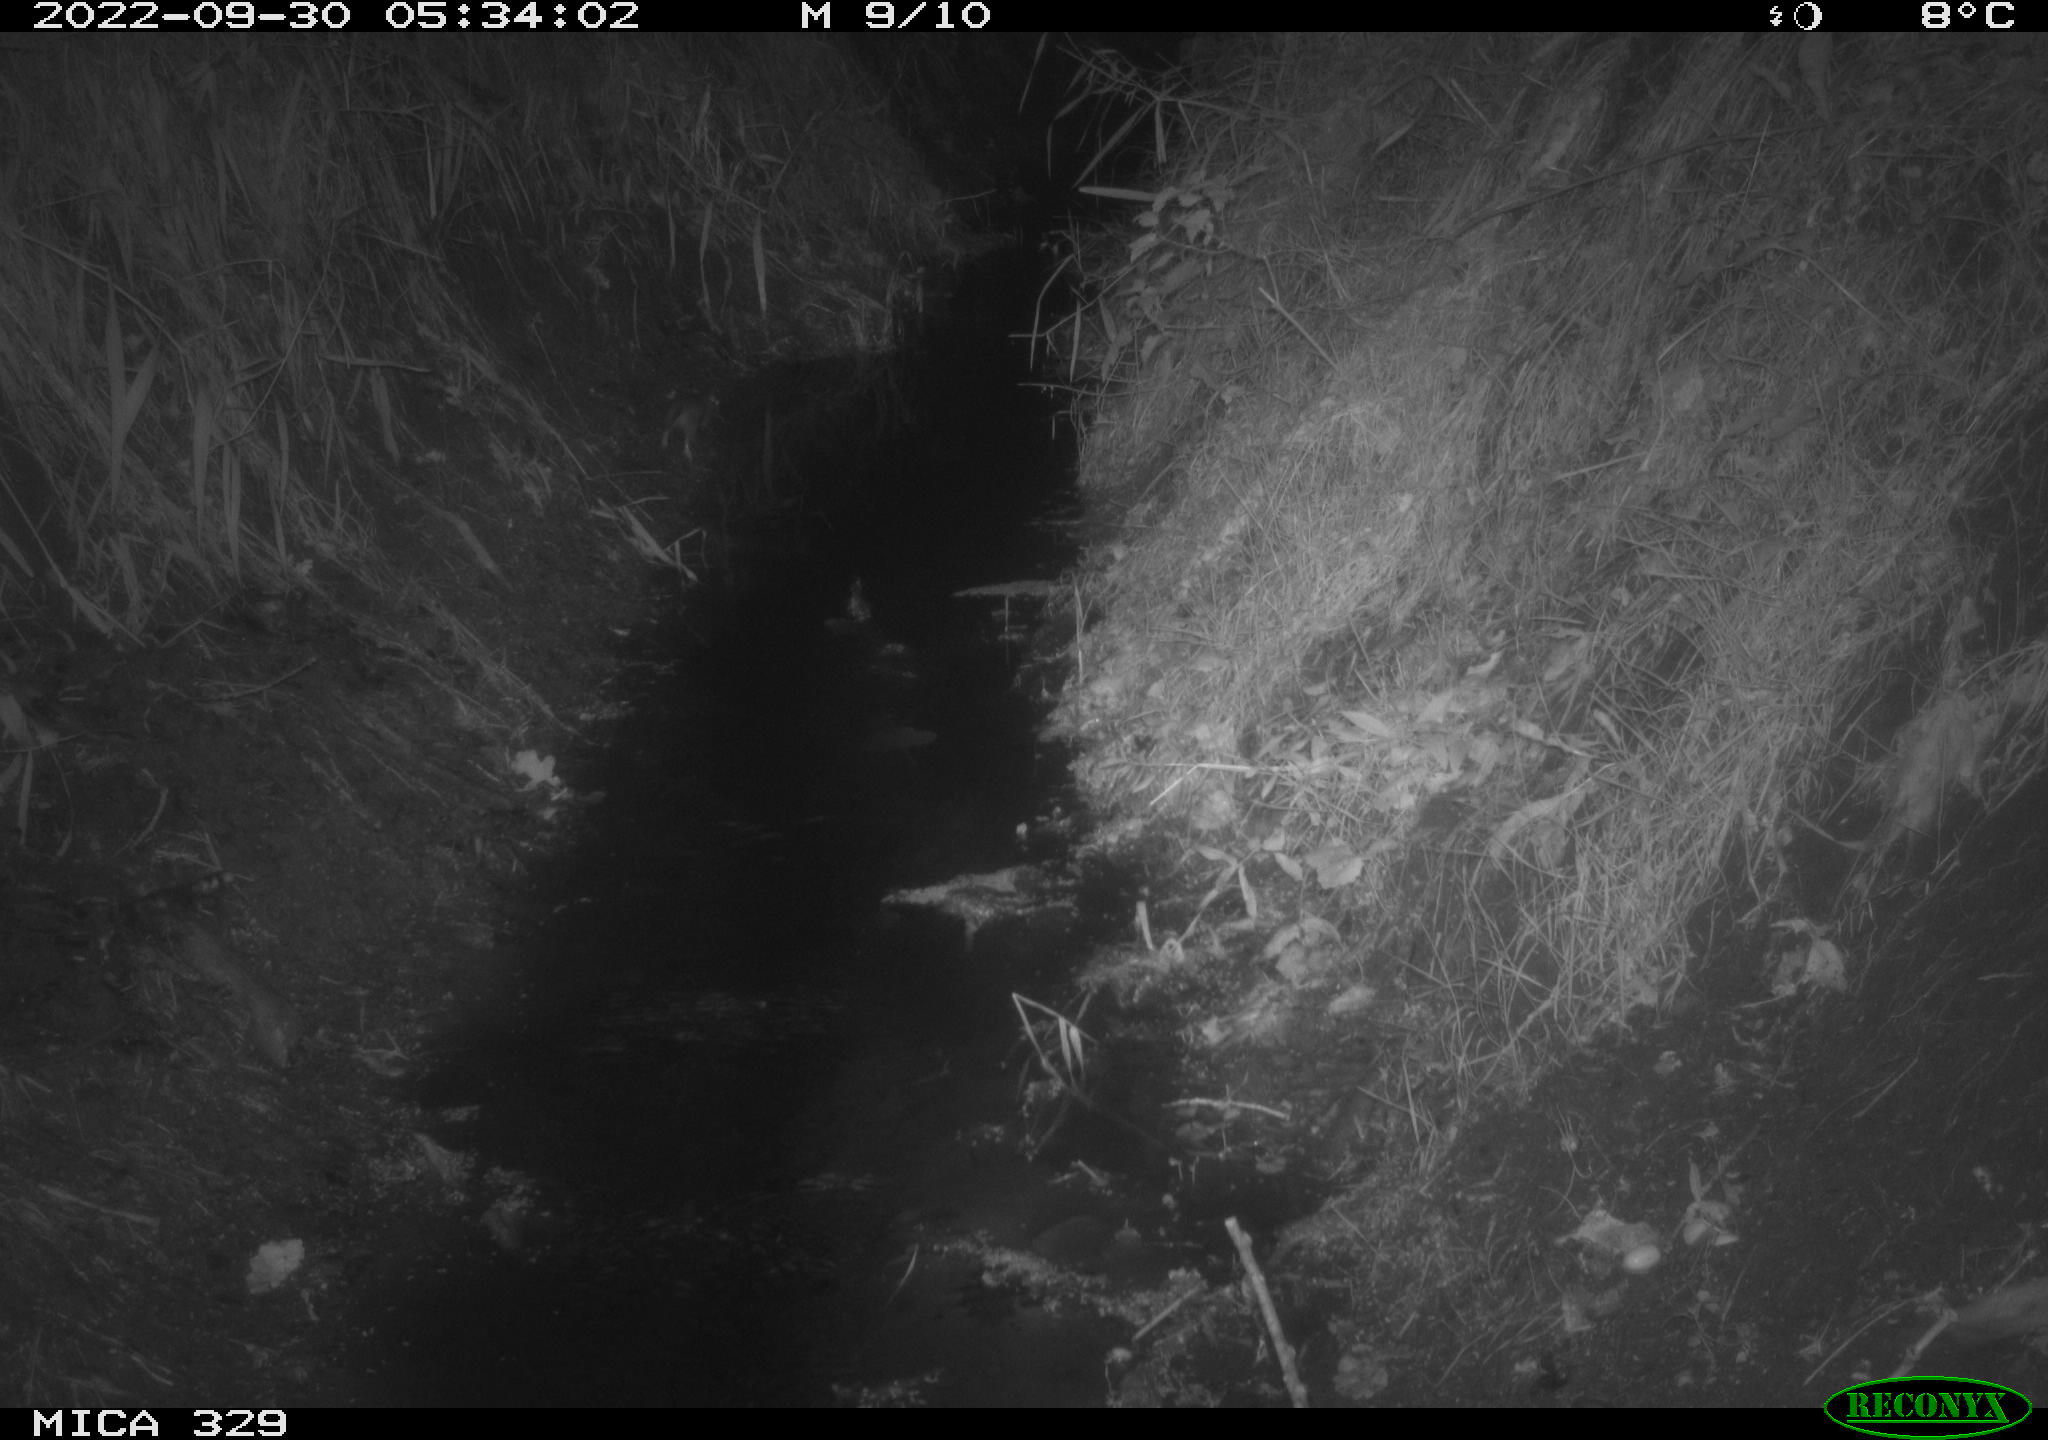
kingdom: Animalia
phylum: Chordata
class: Mammalia
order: Rodentia
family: Muridae
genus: Rattus
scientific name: Rattus norvegicus
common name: Brown rat
